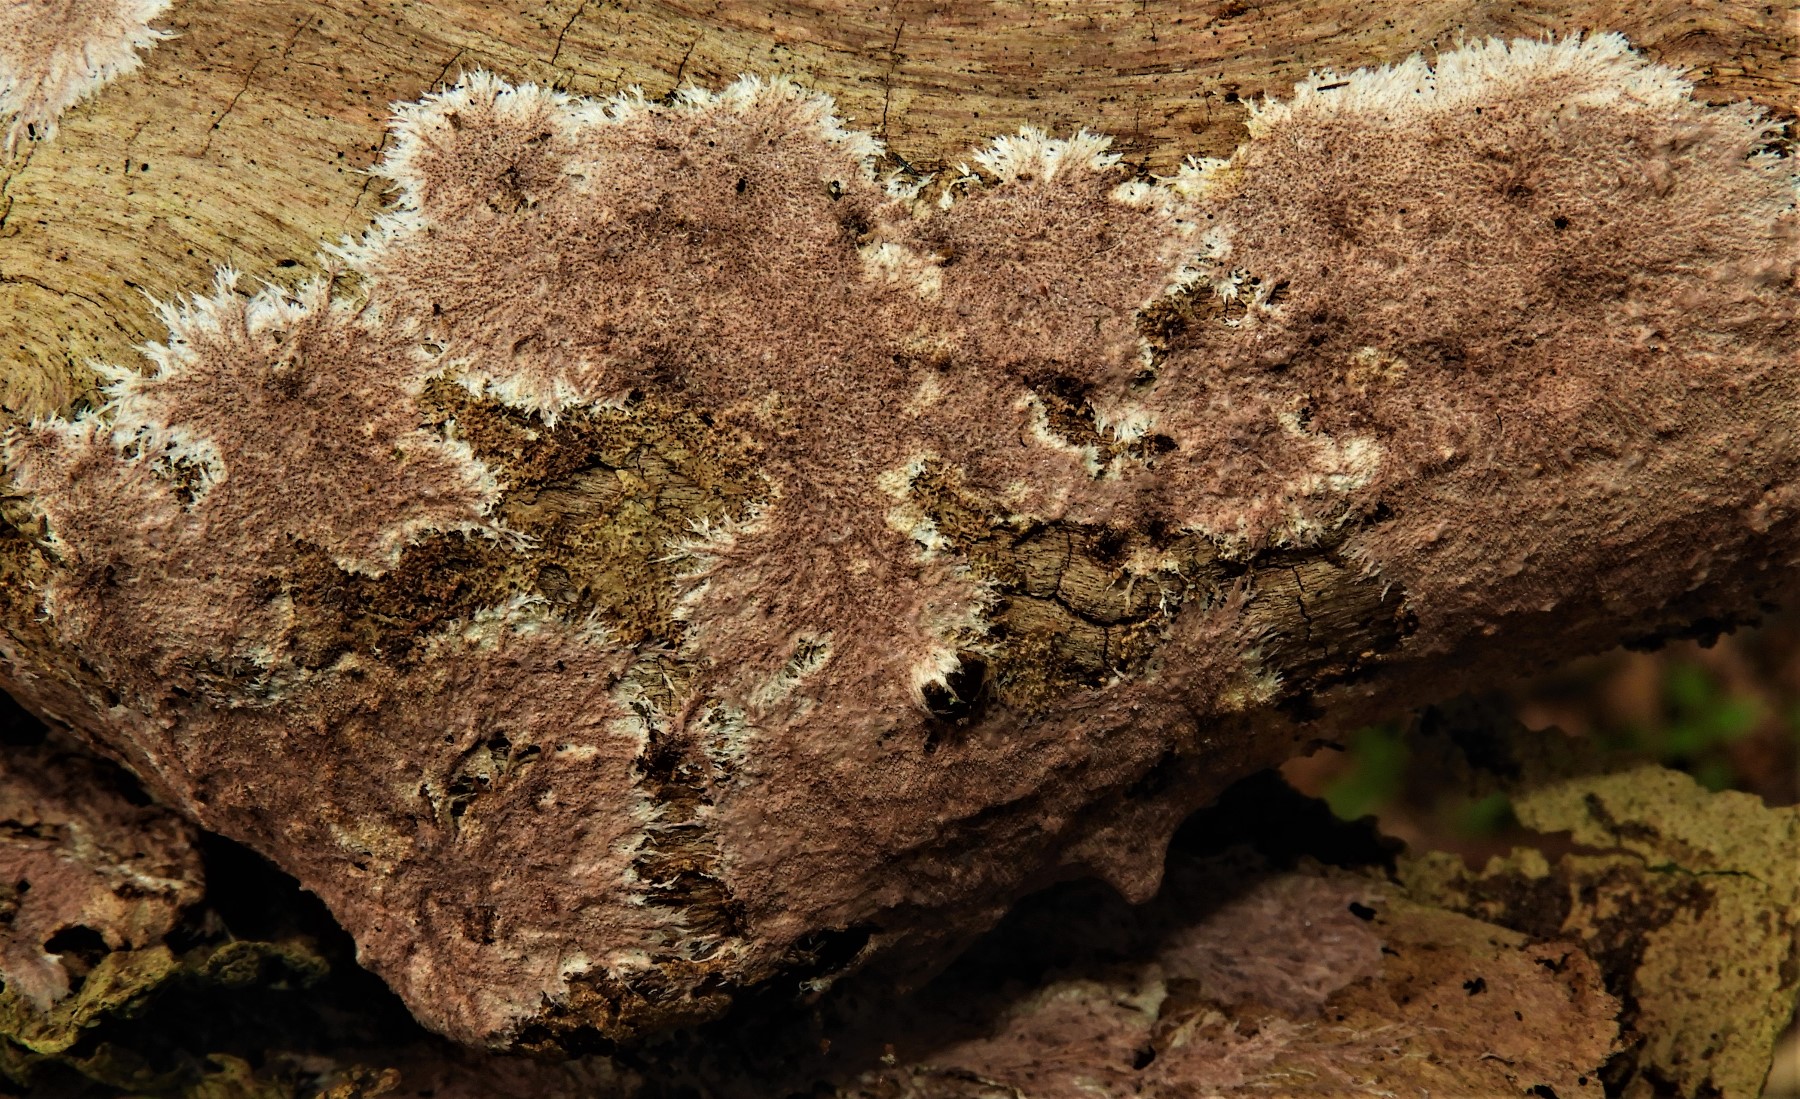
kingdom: Fungi
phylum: Basidiomycota
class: Agaricomycetes
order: Polyporales
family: Steccherinaceae
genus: Steccherinum
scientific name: Steccherinum fimbriatum
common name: trådet skønpig
